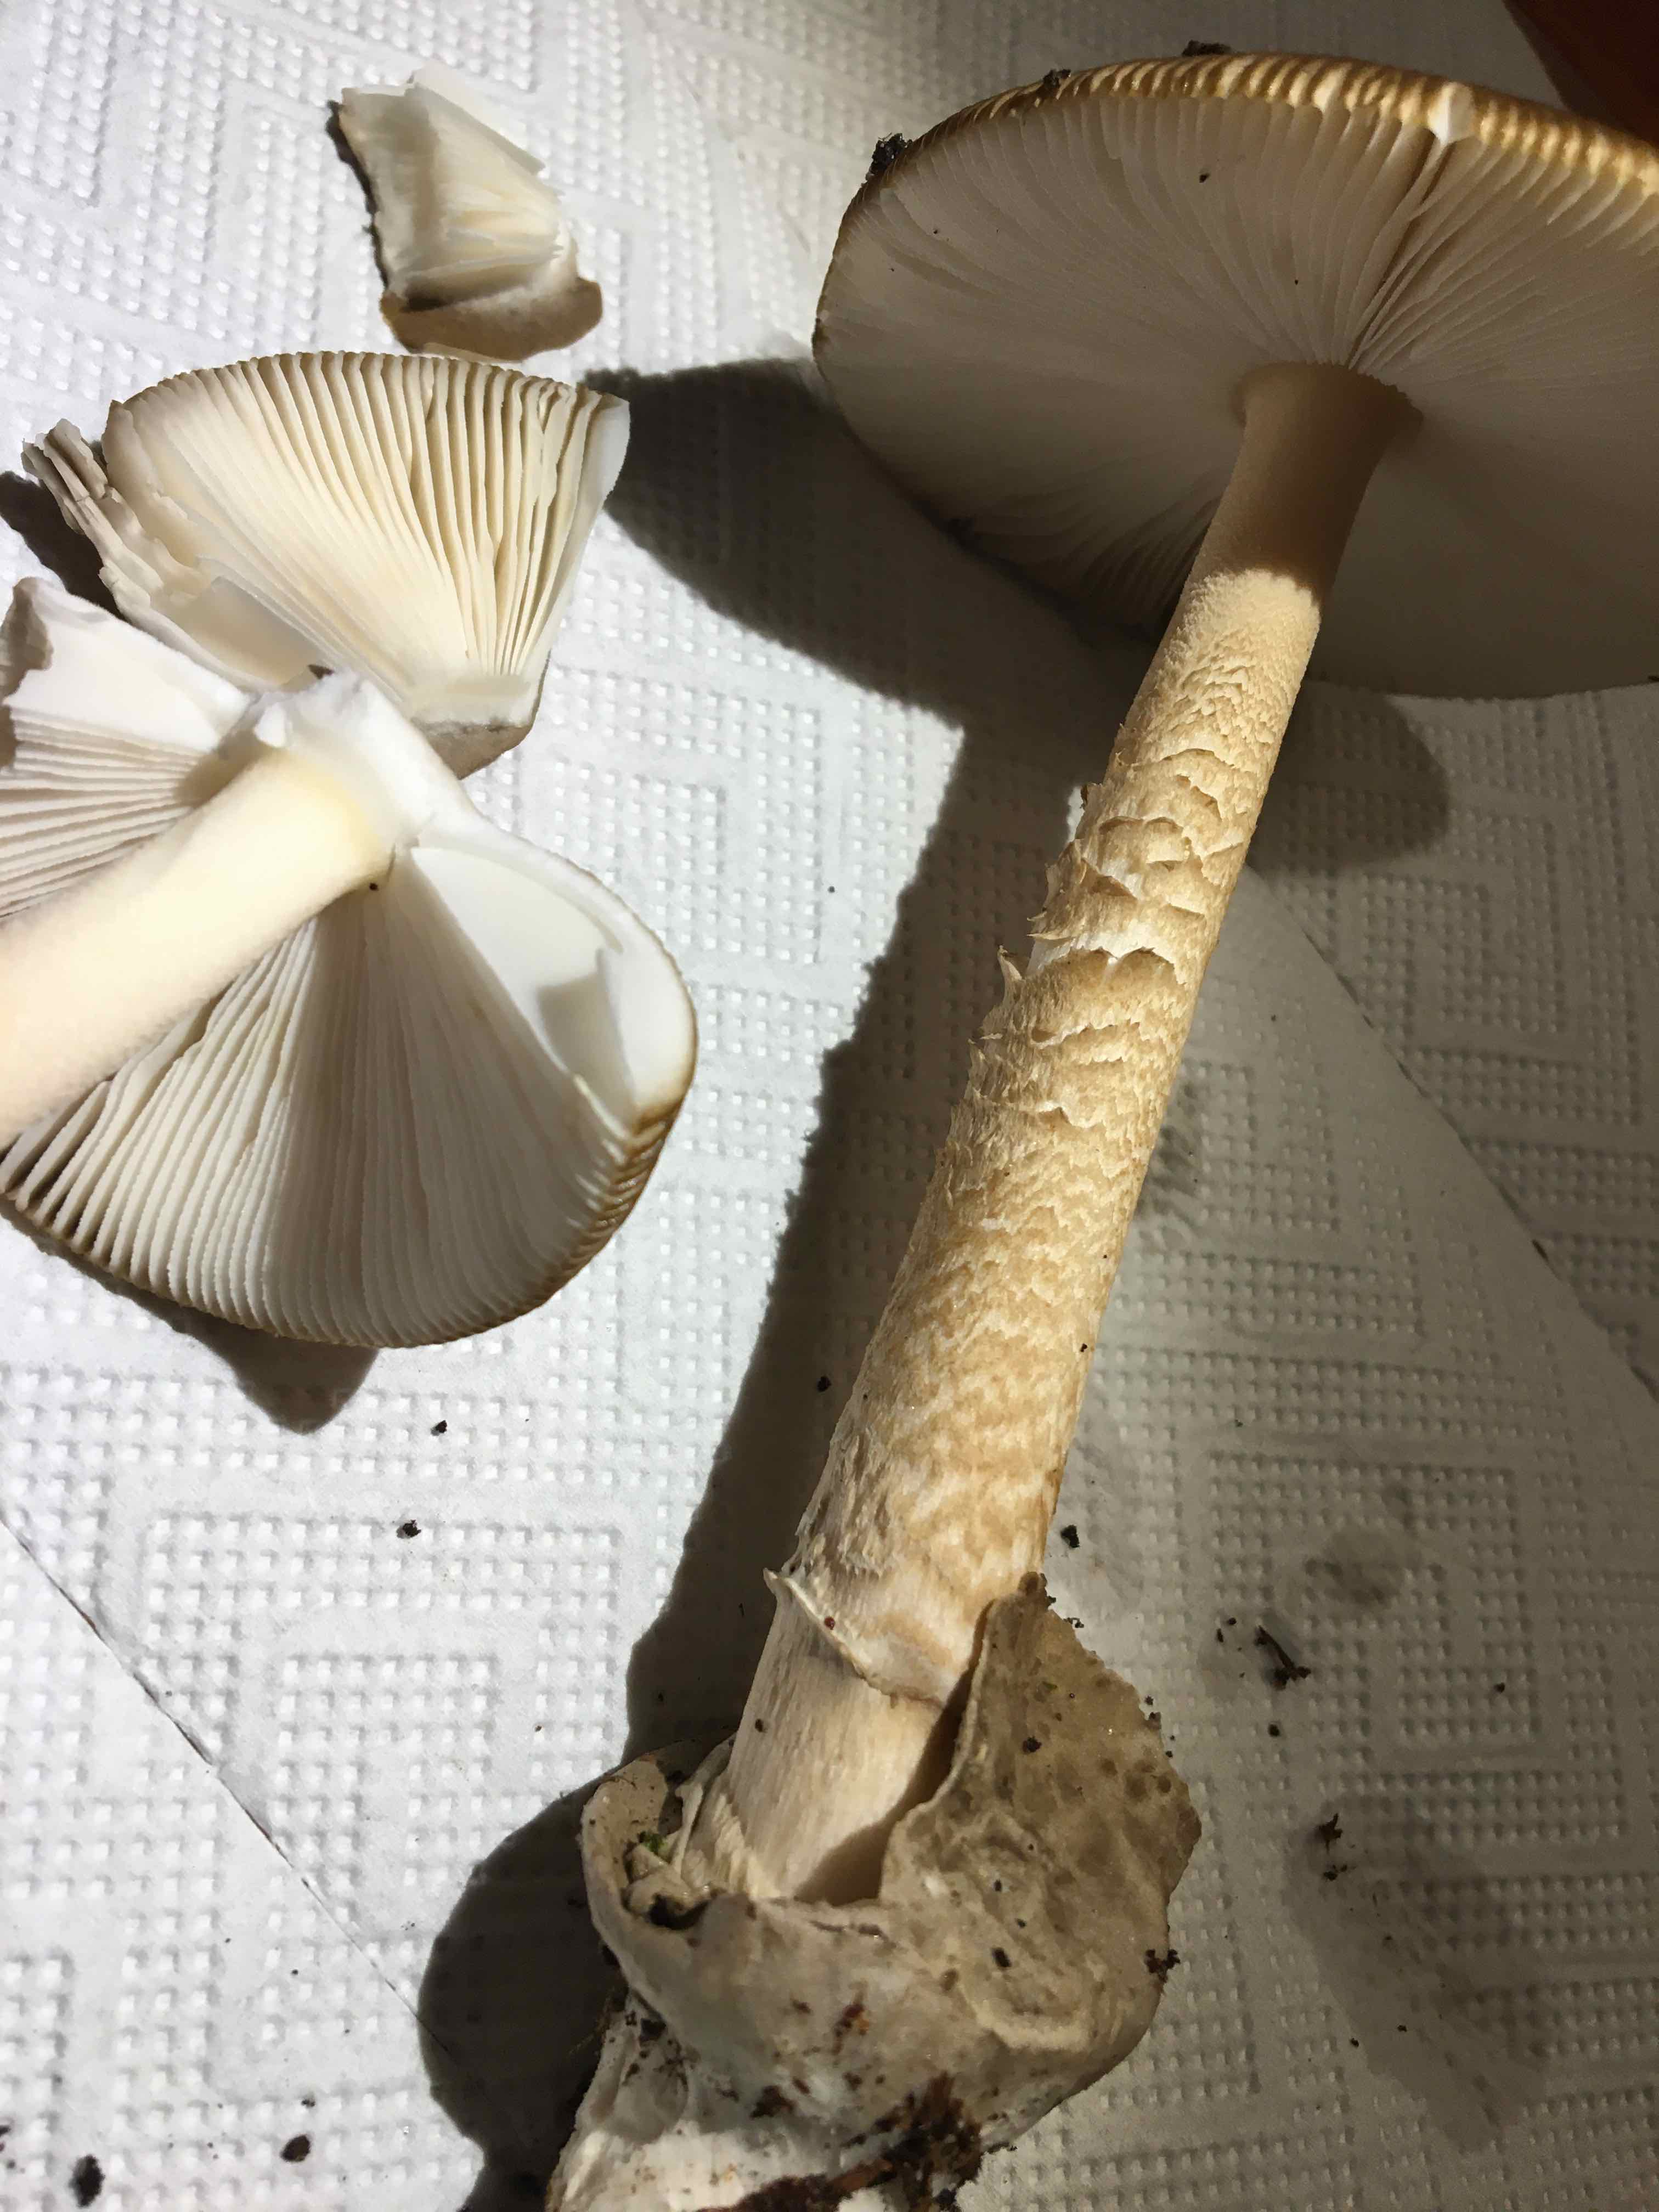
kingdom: Fungi
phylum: Basidiomycota
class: Agaricomycetes
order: Agaricales
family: Amanitaceae
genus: Amanita
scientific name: Amanita submembranacea
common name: gråspættet kam-fluesvamp
